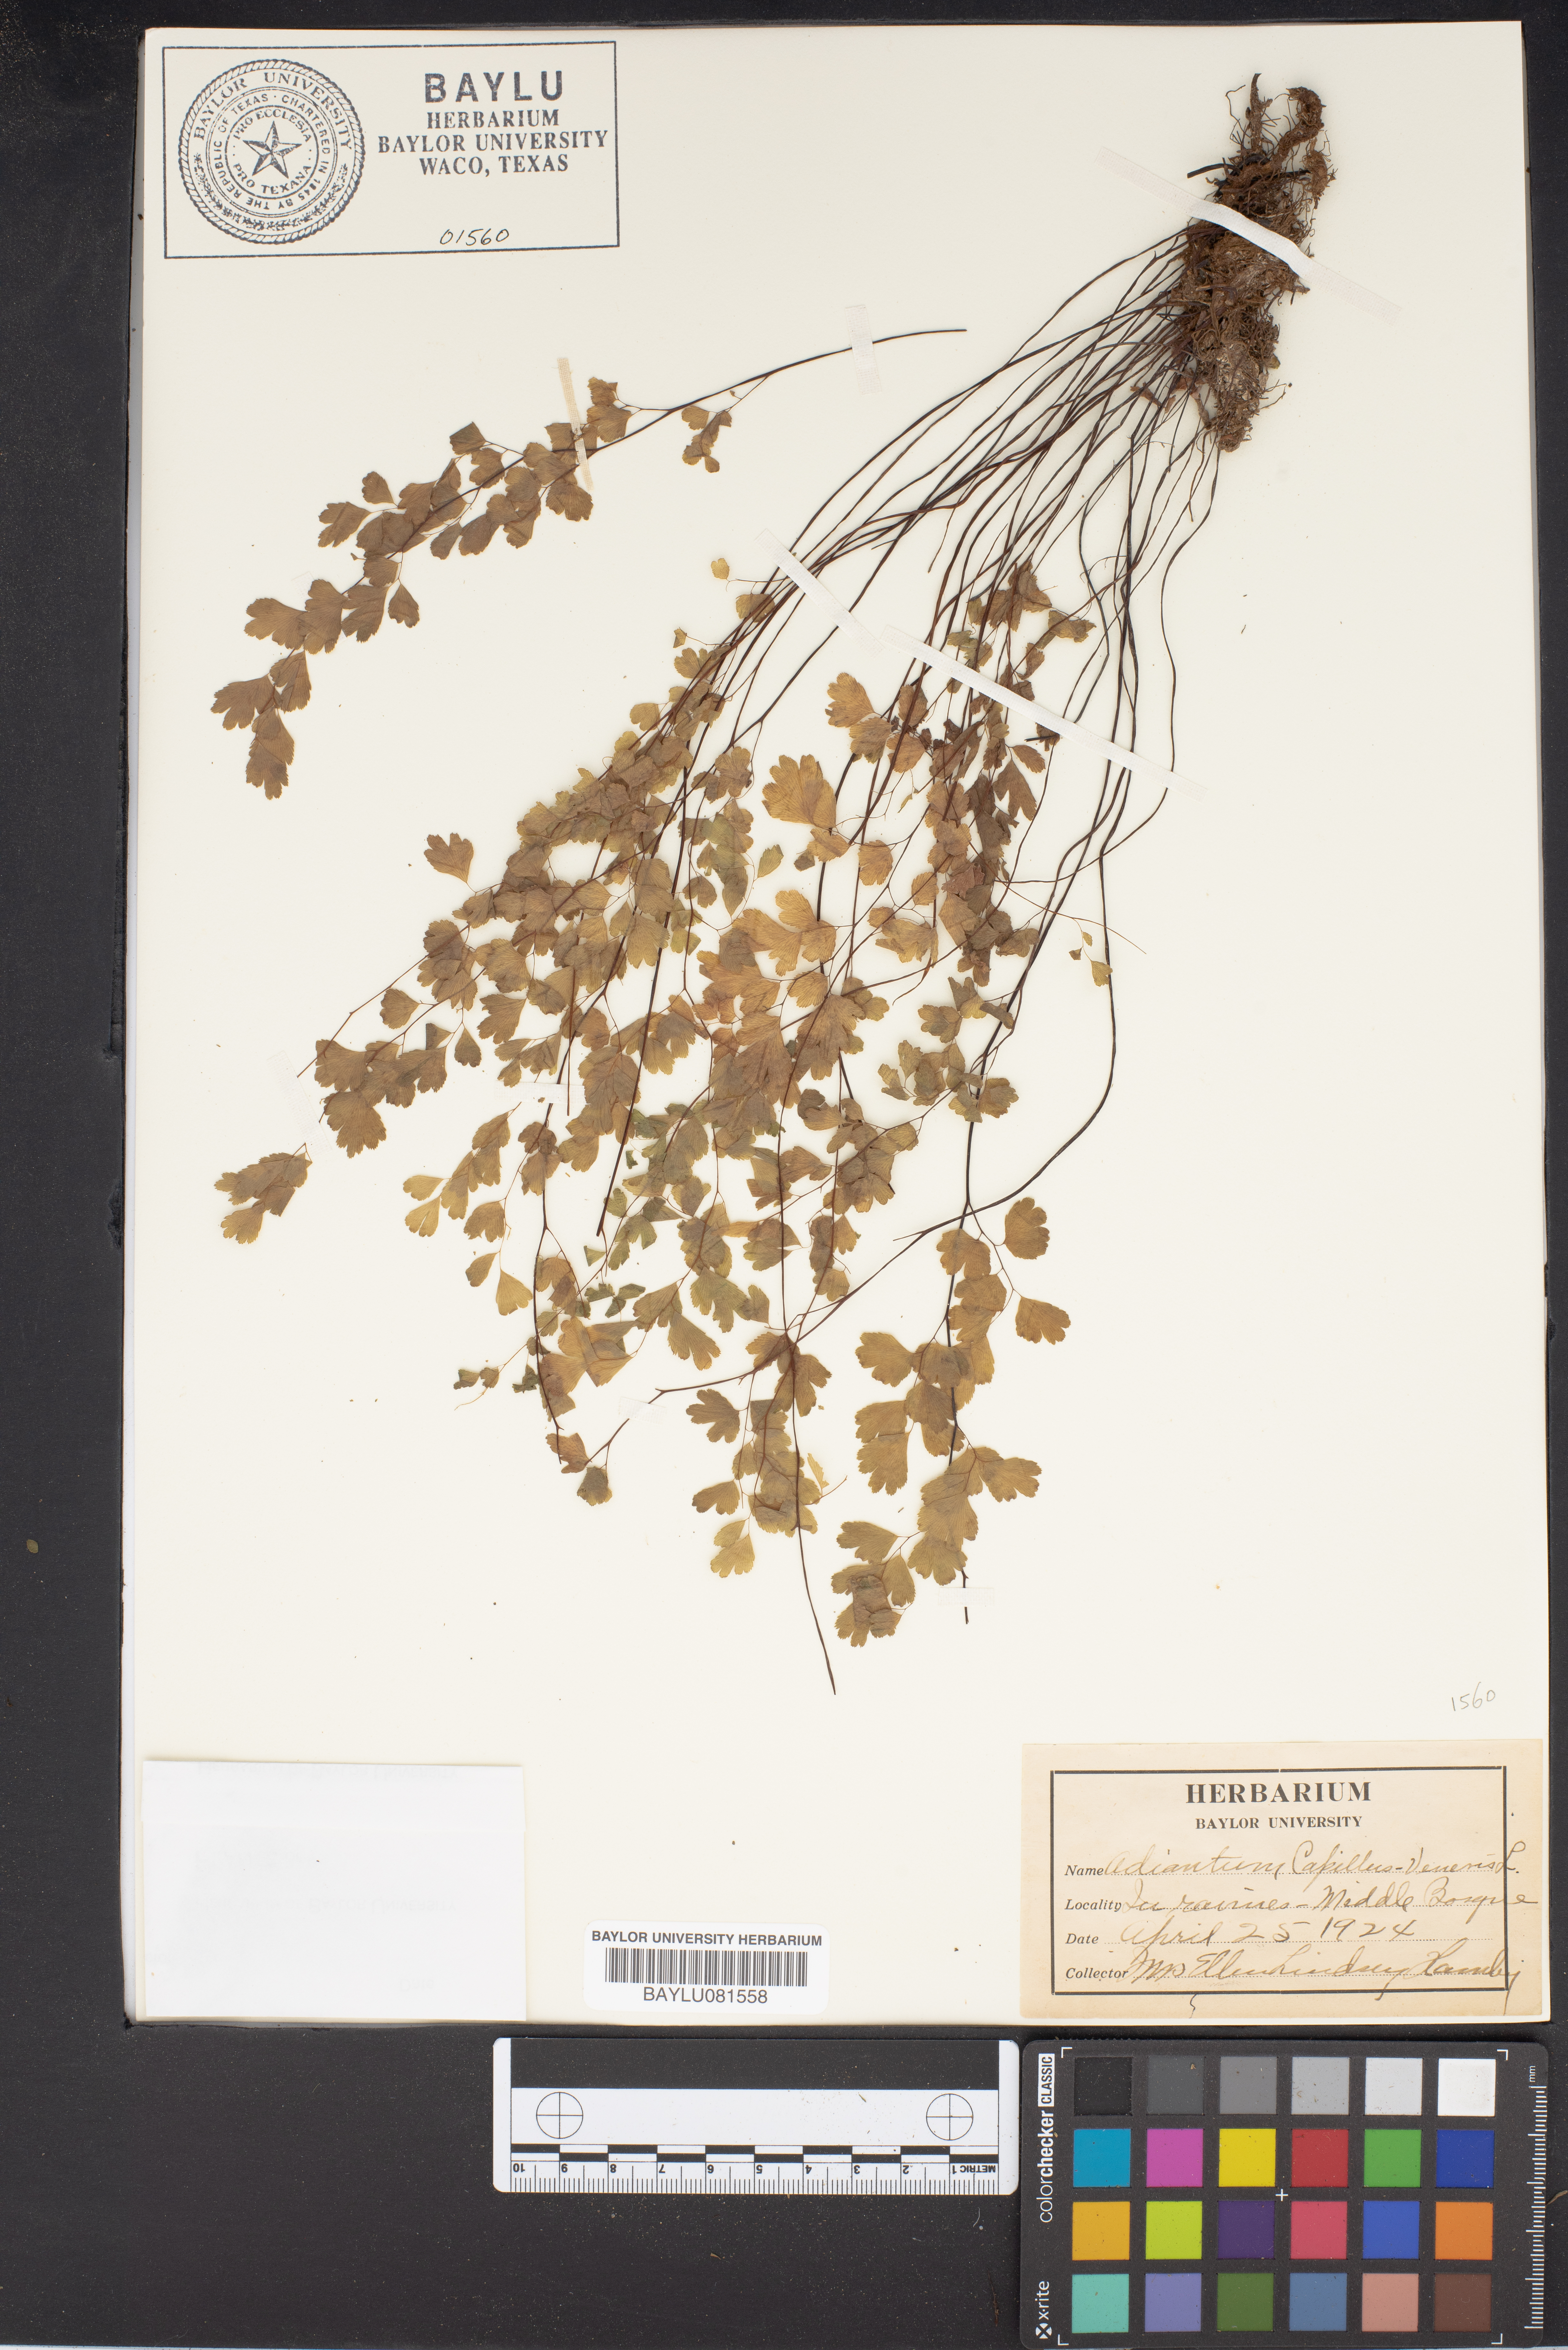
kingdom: Plantae
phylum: Tracheophyta
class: Polypodiopsida
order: Polypodiales
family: Pteridaceae
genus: Adiantum
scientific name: Adiantum capillus-veneris
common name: Maidenhair fern
